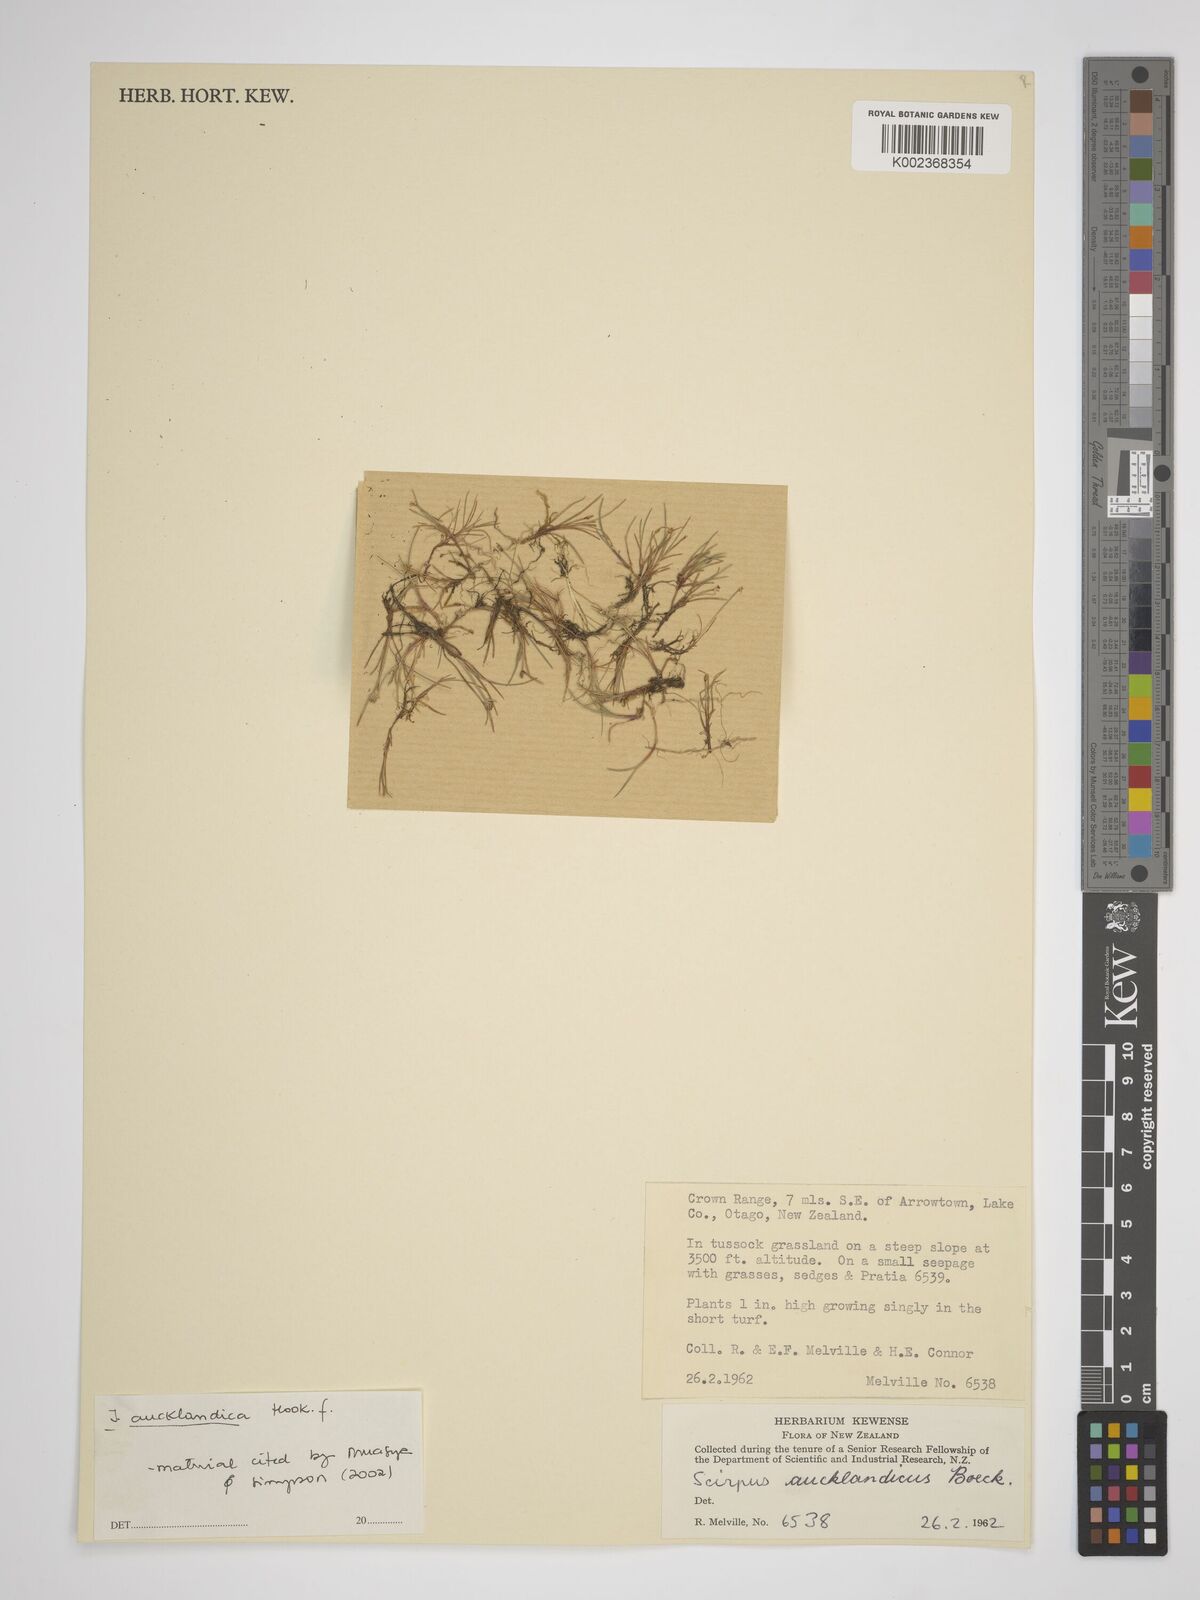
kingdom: Plantae
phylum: Tracheophyta
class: Liliopsida
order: Poales
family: Cyperaceae
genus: Isolepis
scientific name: Isolepis aucklandica
